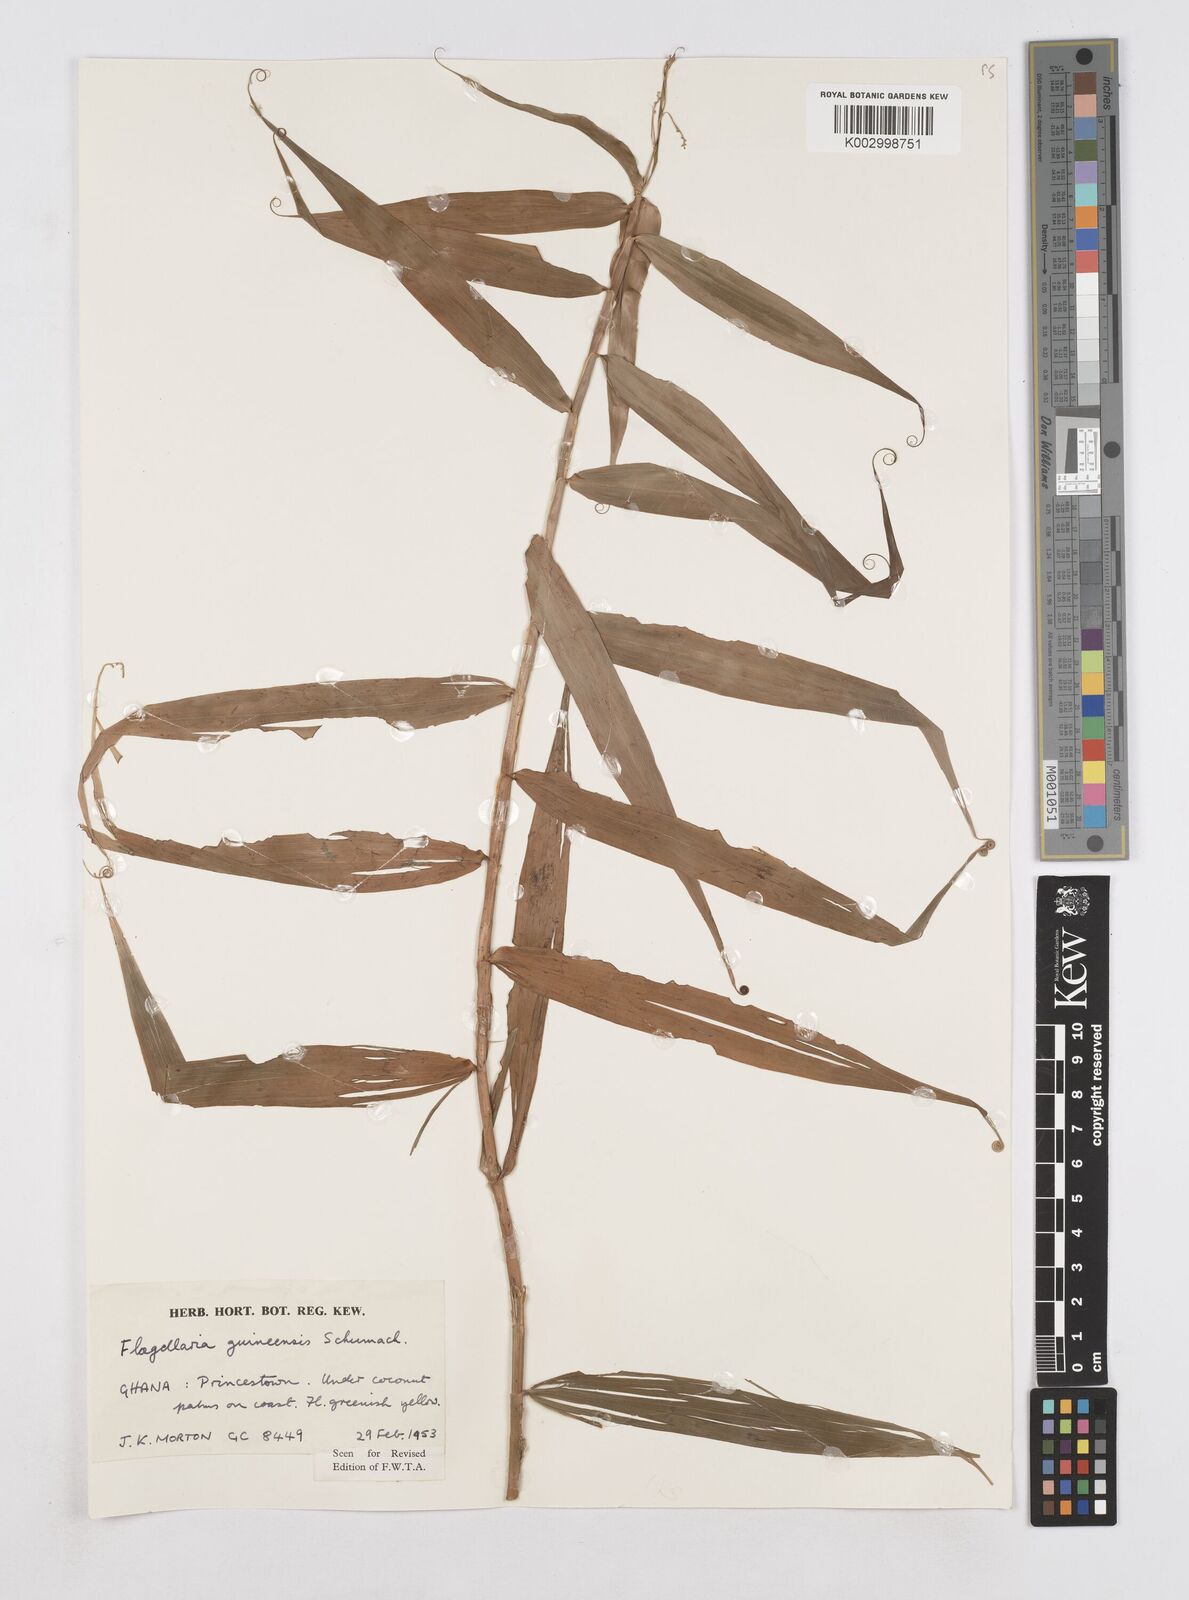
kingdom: Plantae
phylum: Tracheophyta
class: Liliopsida
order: Poales
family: Flagellariaceae
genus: Flagellaria
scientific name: Flagellaria guineensis
